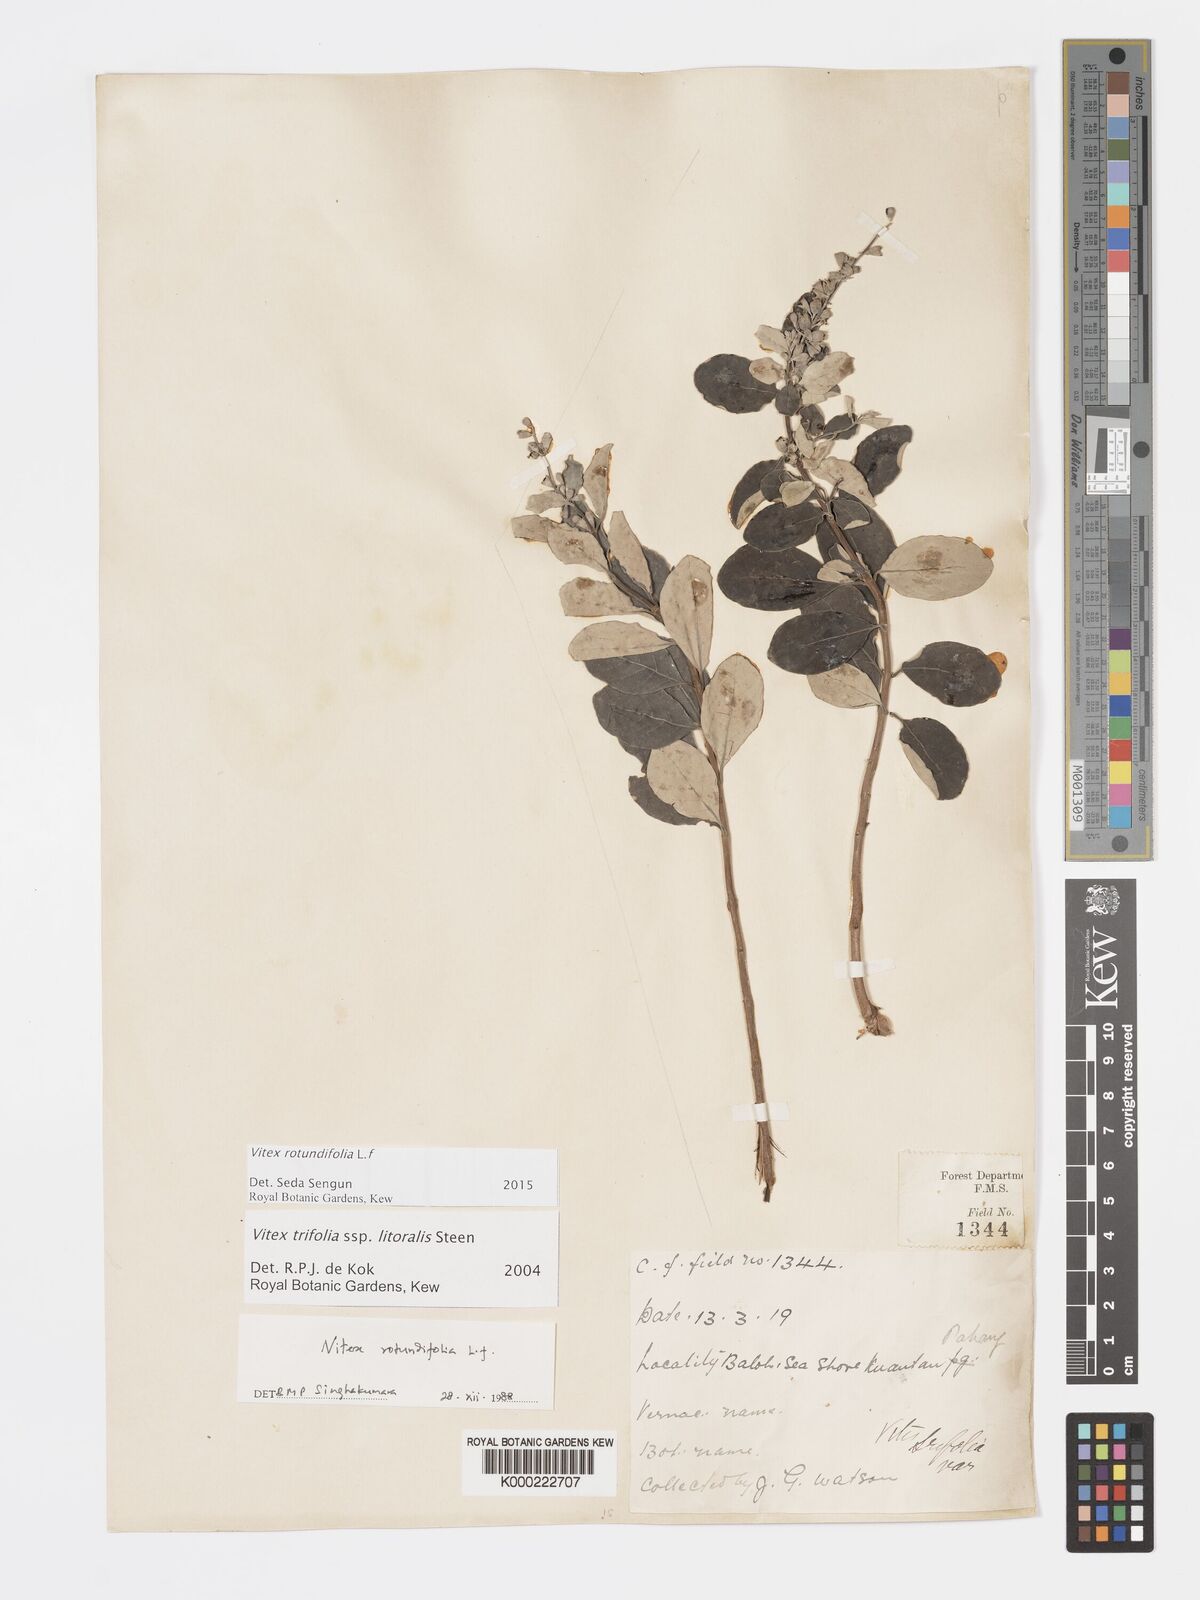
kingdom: Plantae
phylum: Tracheophyta
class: Magnoliopsida
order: Lamiales
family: Lamiaceae
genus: Vitex
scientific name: Vitex rotundifolia
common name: Beach vitex
